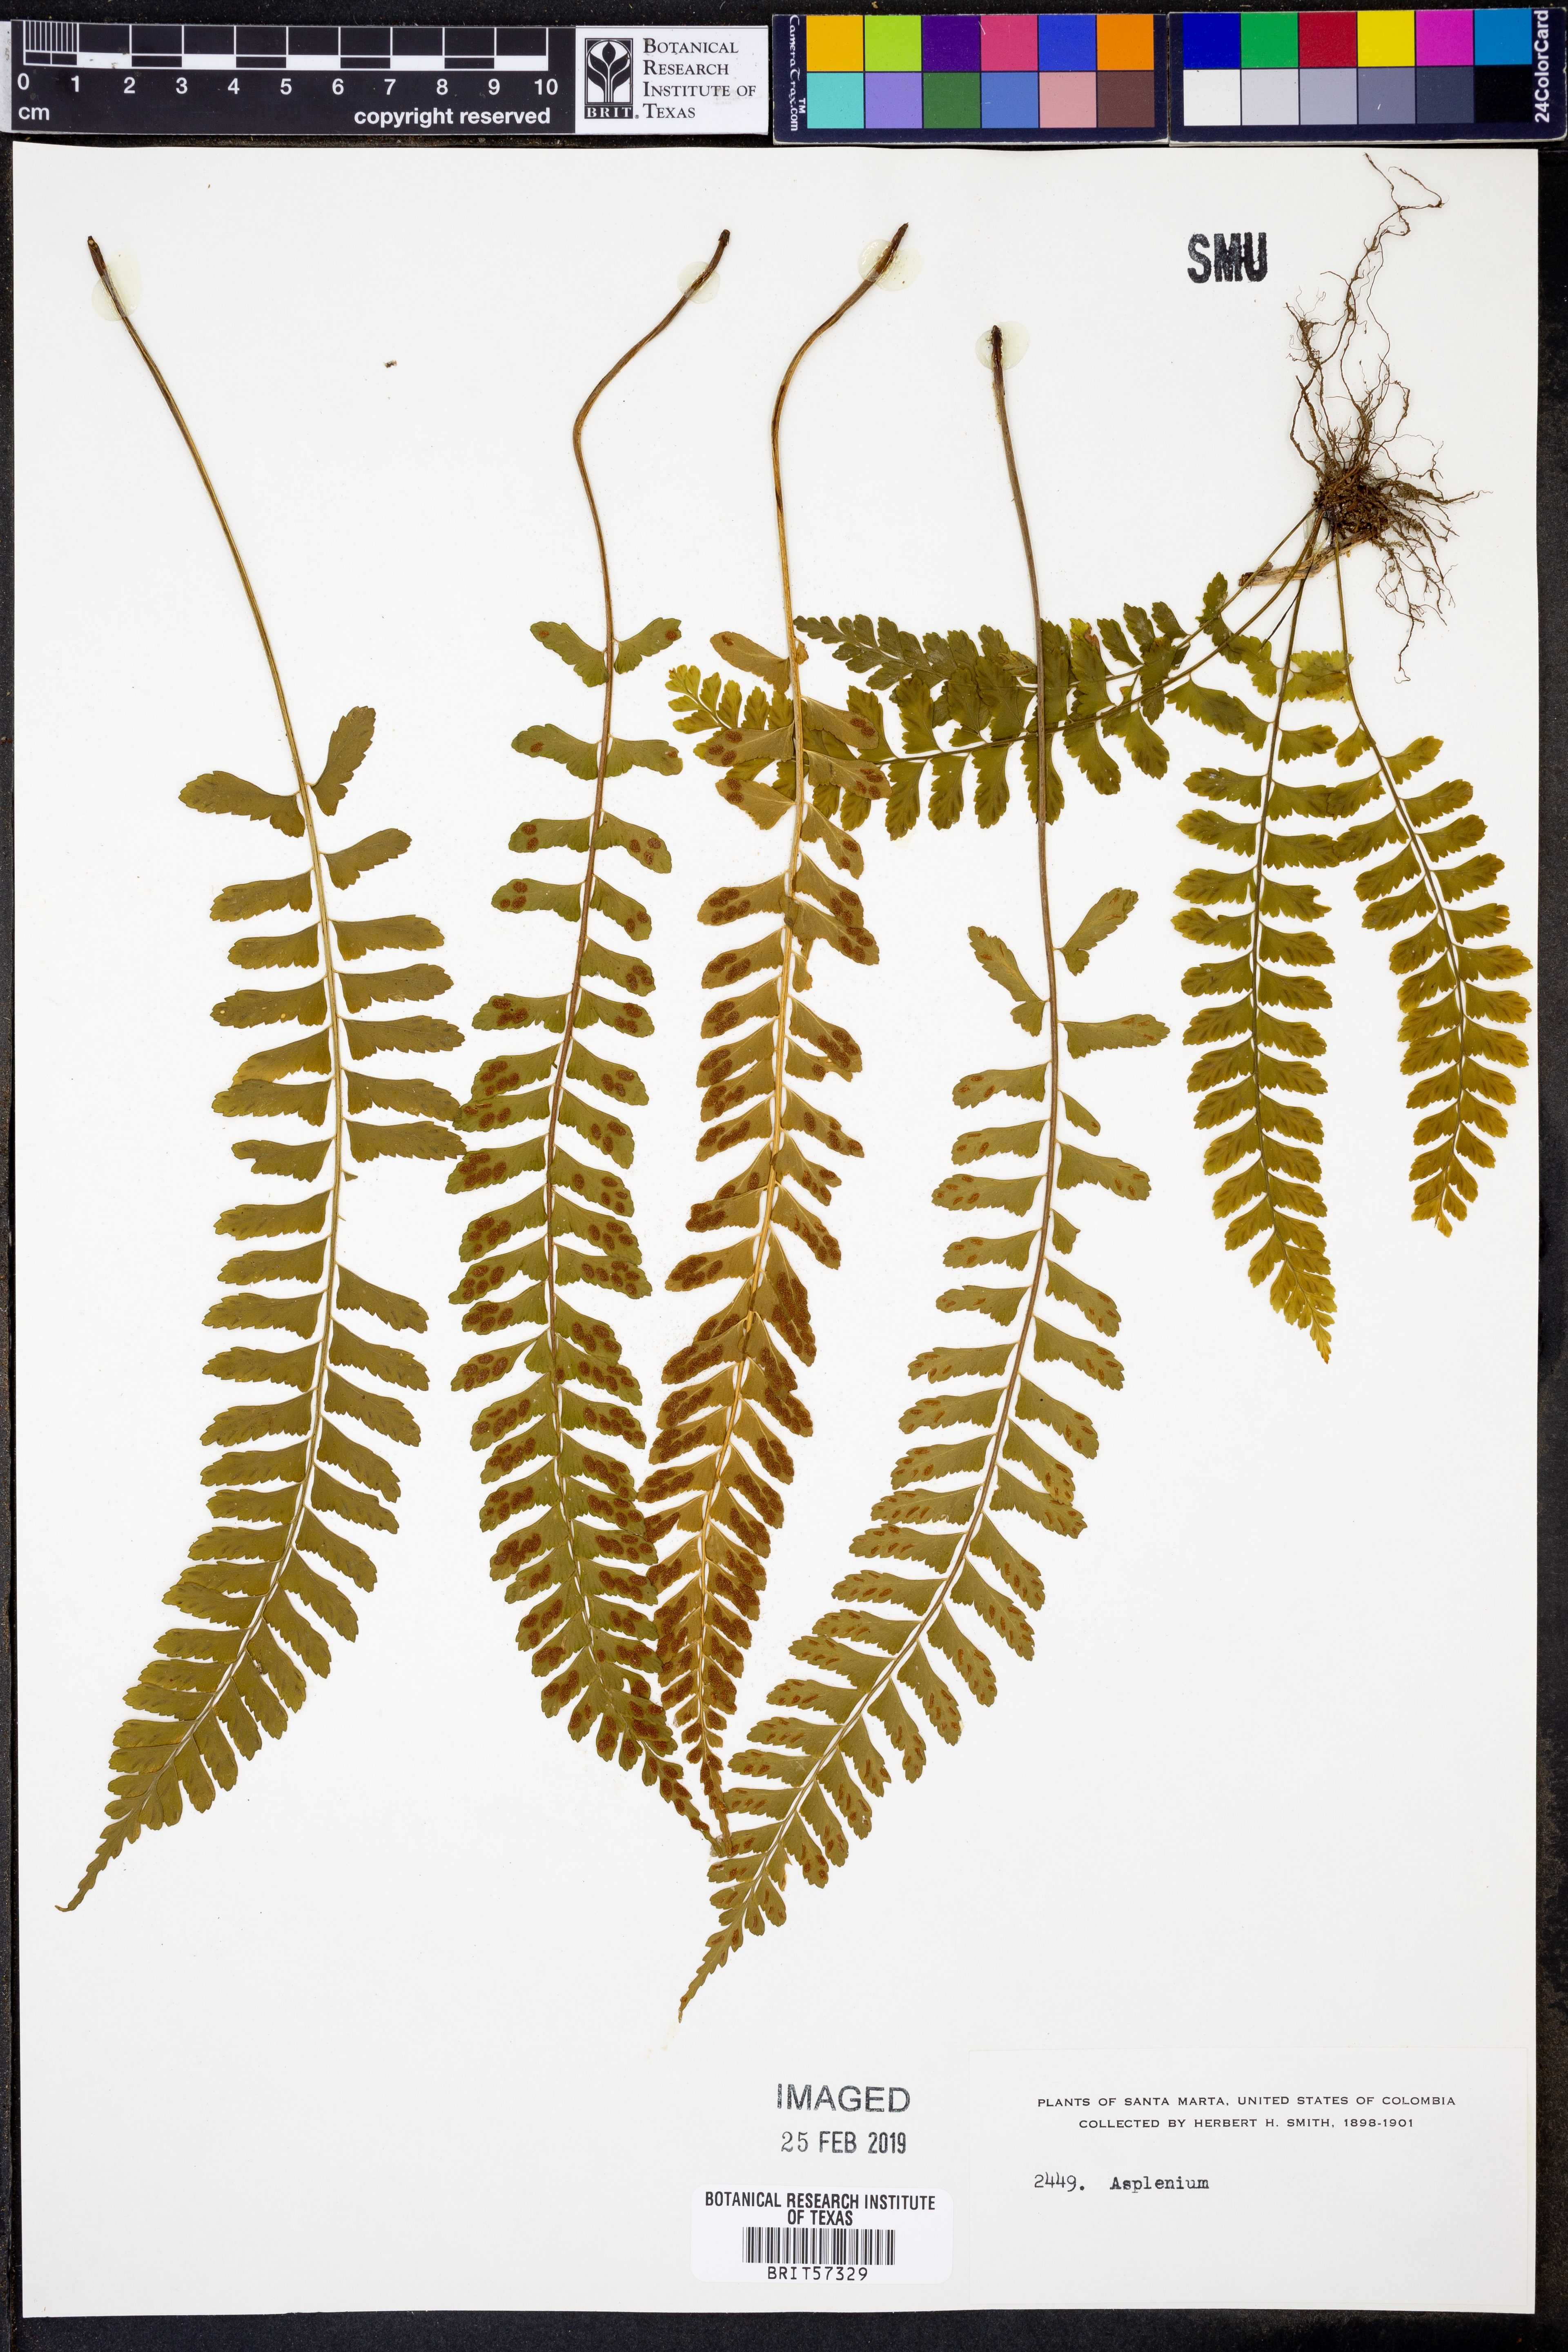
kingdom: Plantae
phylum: Tracheophyta
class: Polypodiopsida
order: Polypodiales
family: Aspleniaceae
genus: Asplenium
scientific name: Asplenium
